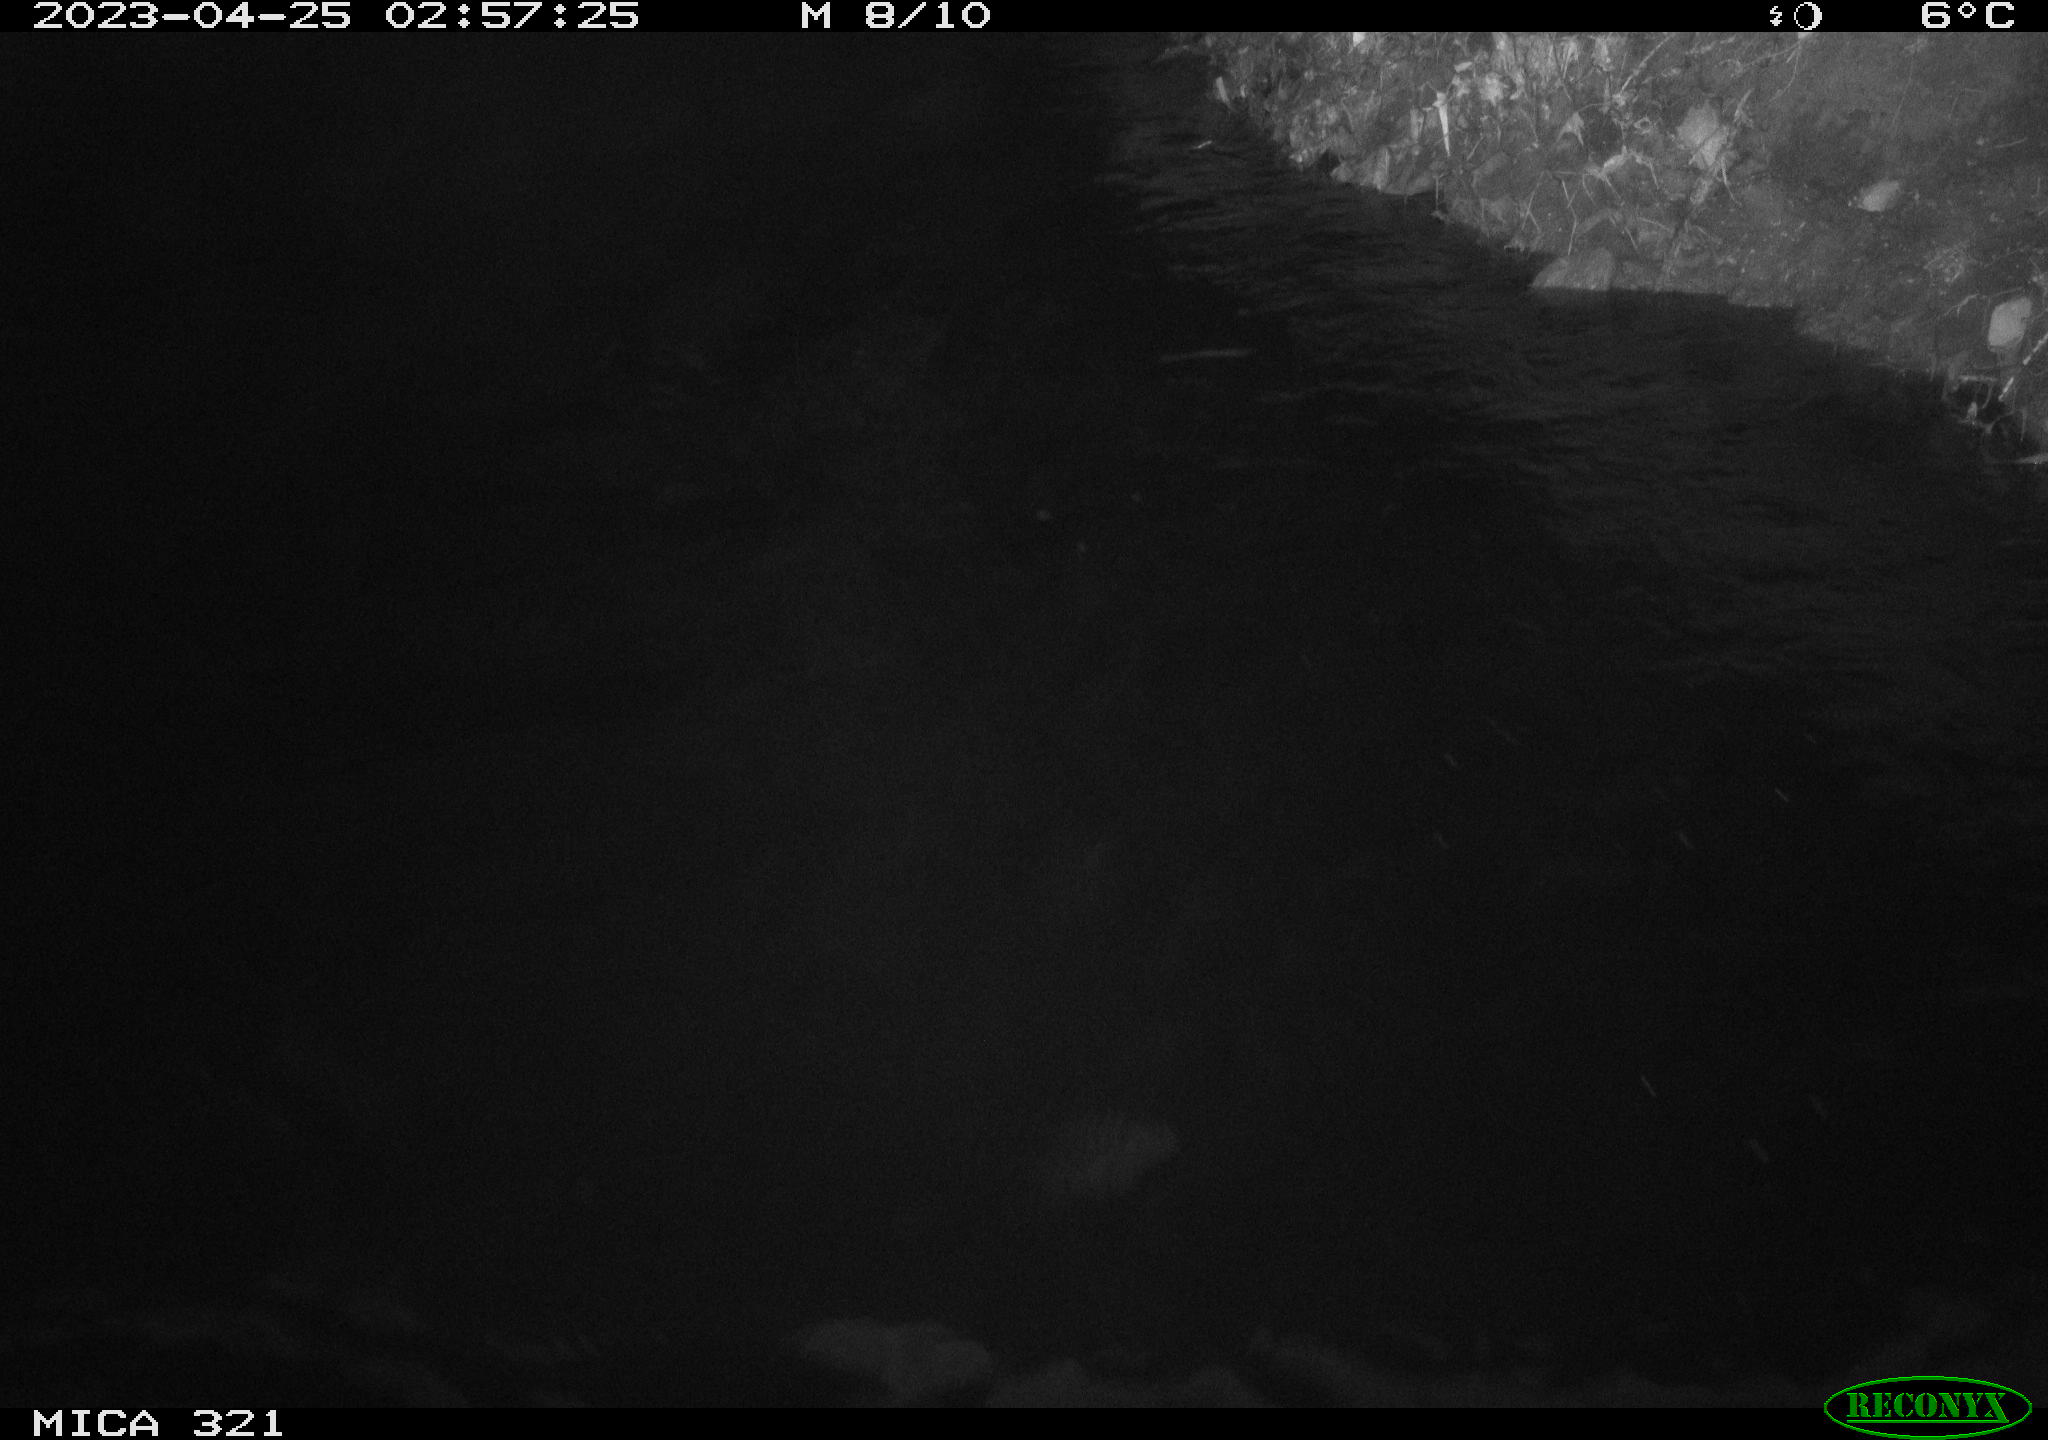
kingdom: Animalia
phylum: Chordata
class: Aves
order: Anseriformes
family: Anatidae
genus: Anas
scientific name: Anas
